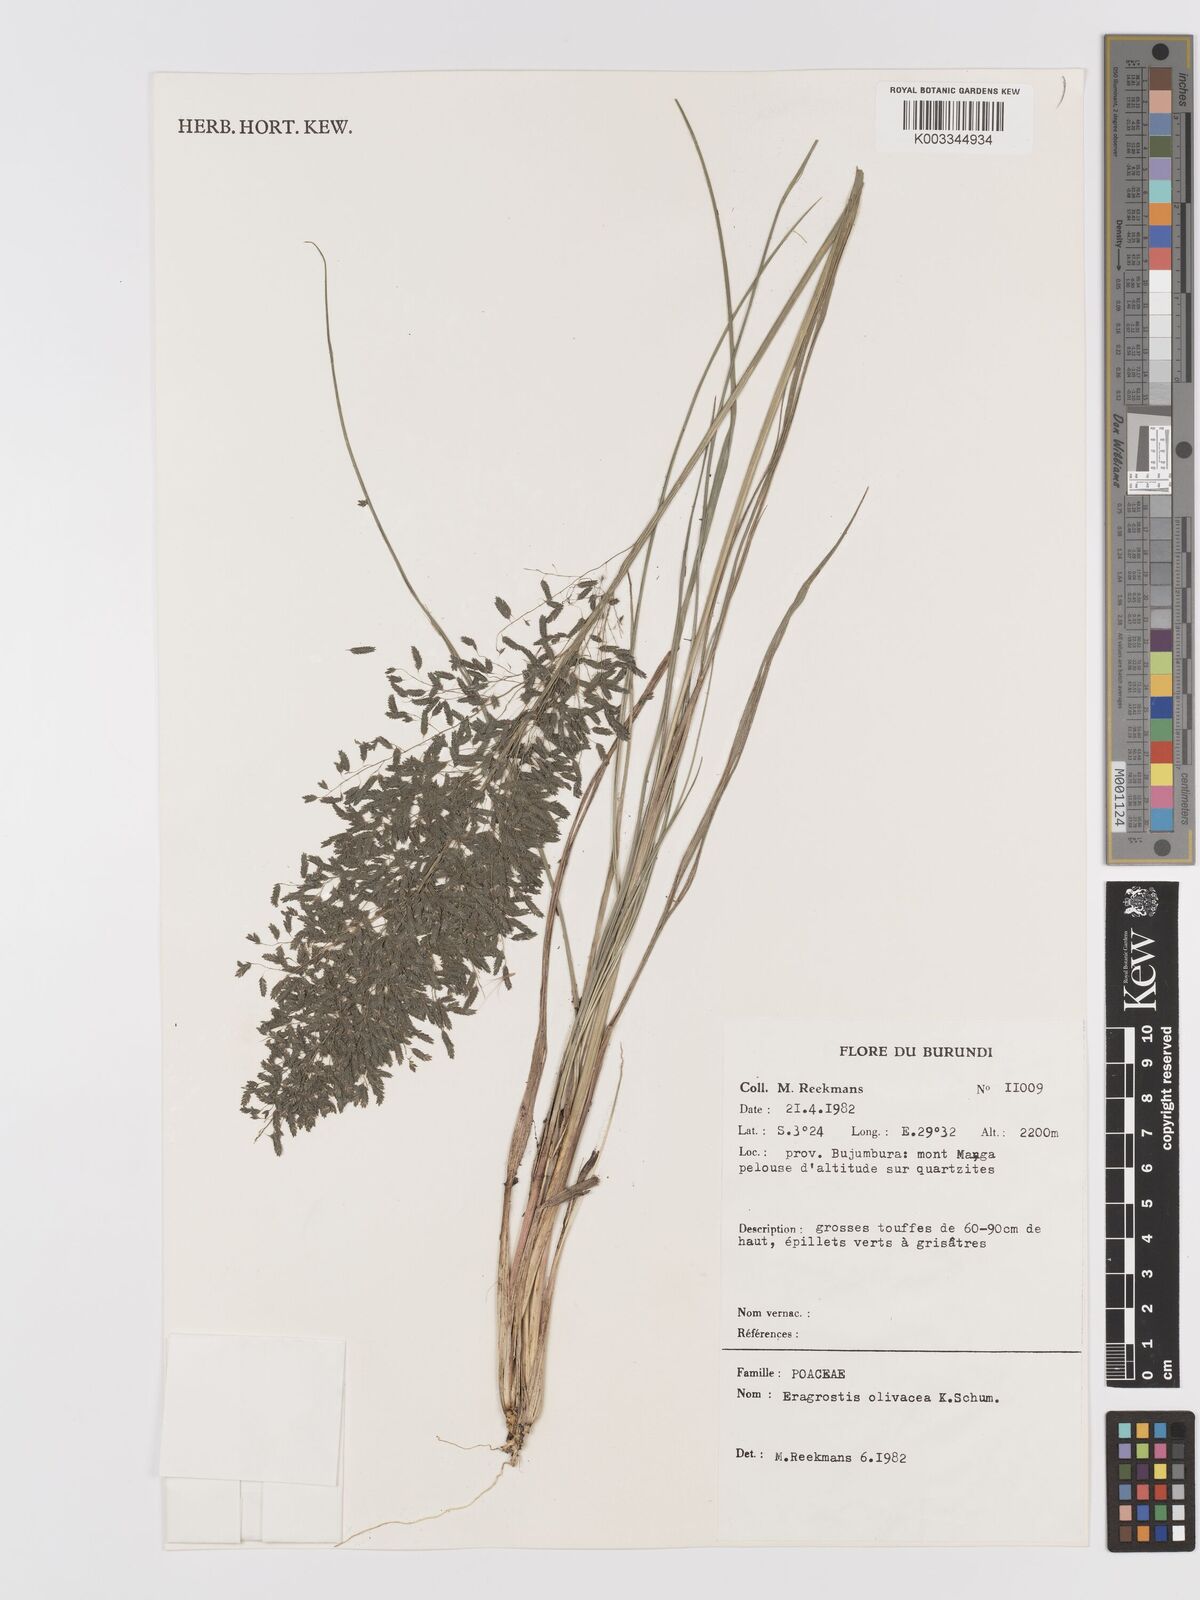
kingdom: Plantae
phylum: Tracheophyta
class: Liliopsida
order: Poales
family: Poaceae
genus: Eragrostis
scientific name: Eragrostis olivacea
